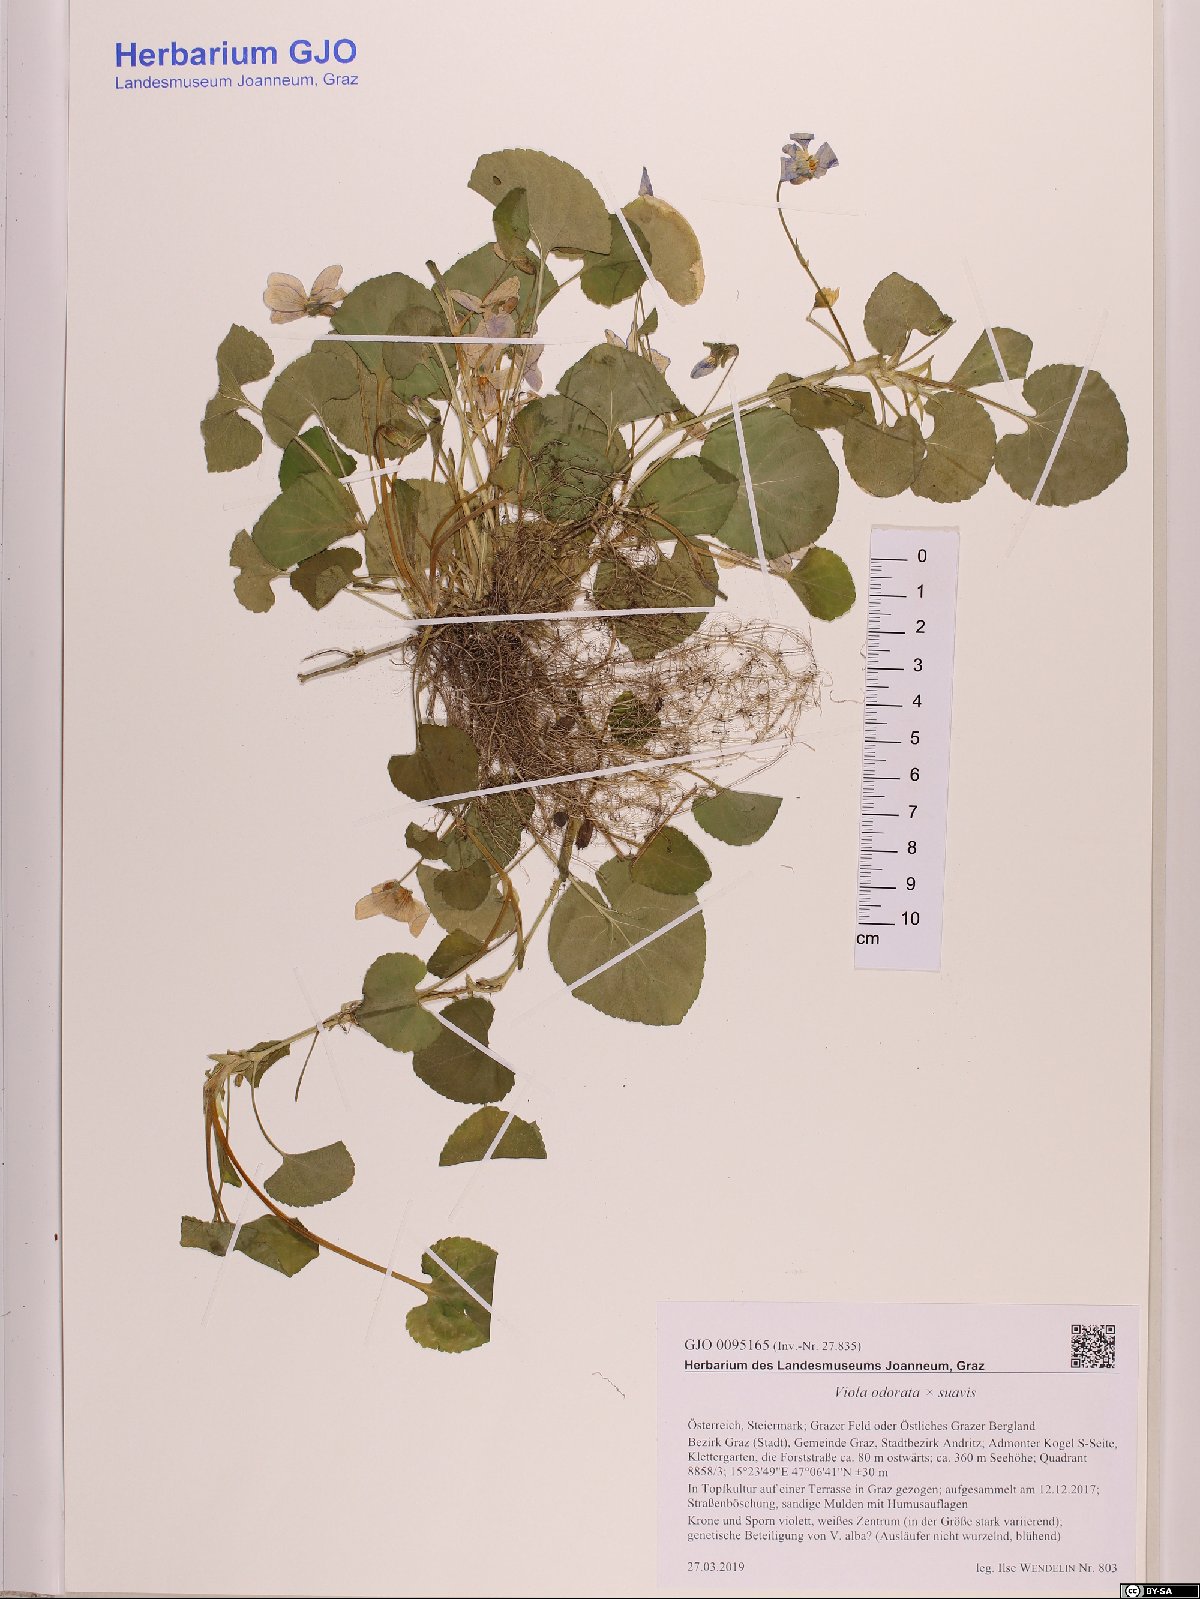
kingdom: Plantae
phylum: Tracheophyta
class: Magnoliopsida
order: Malpighiales
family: Violaceae
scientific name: Violaceae
